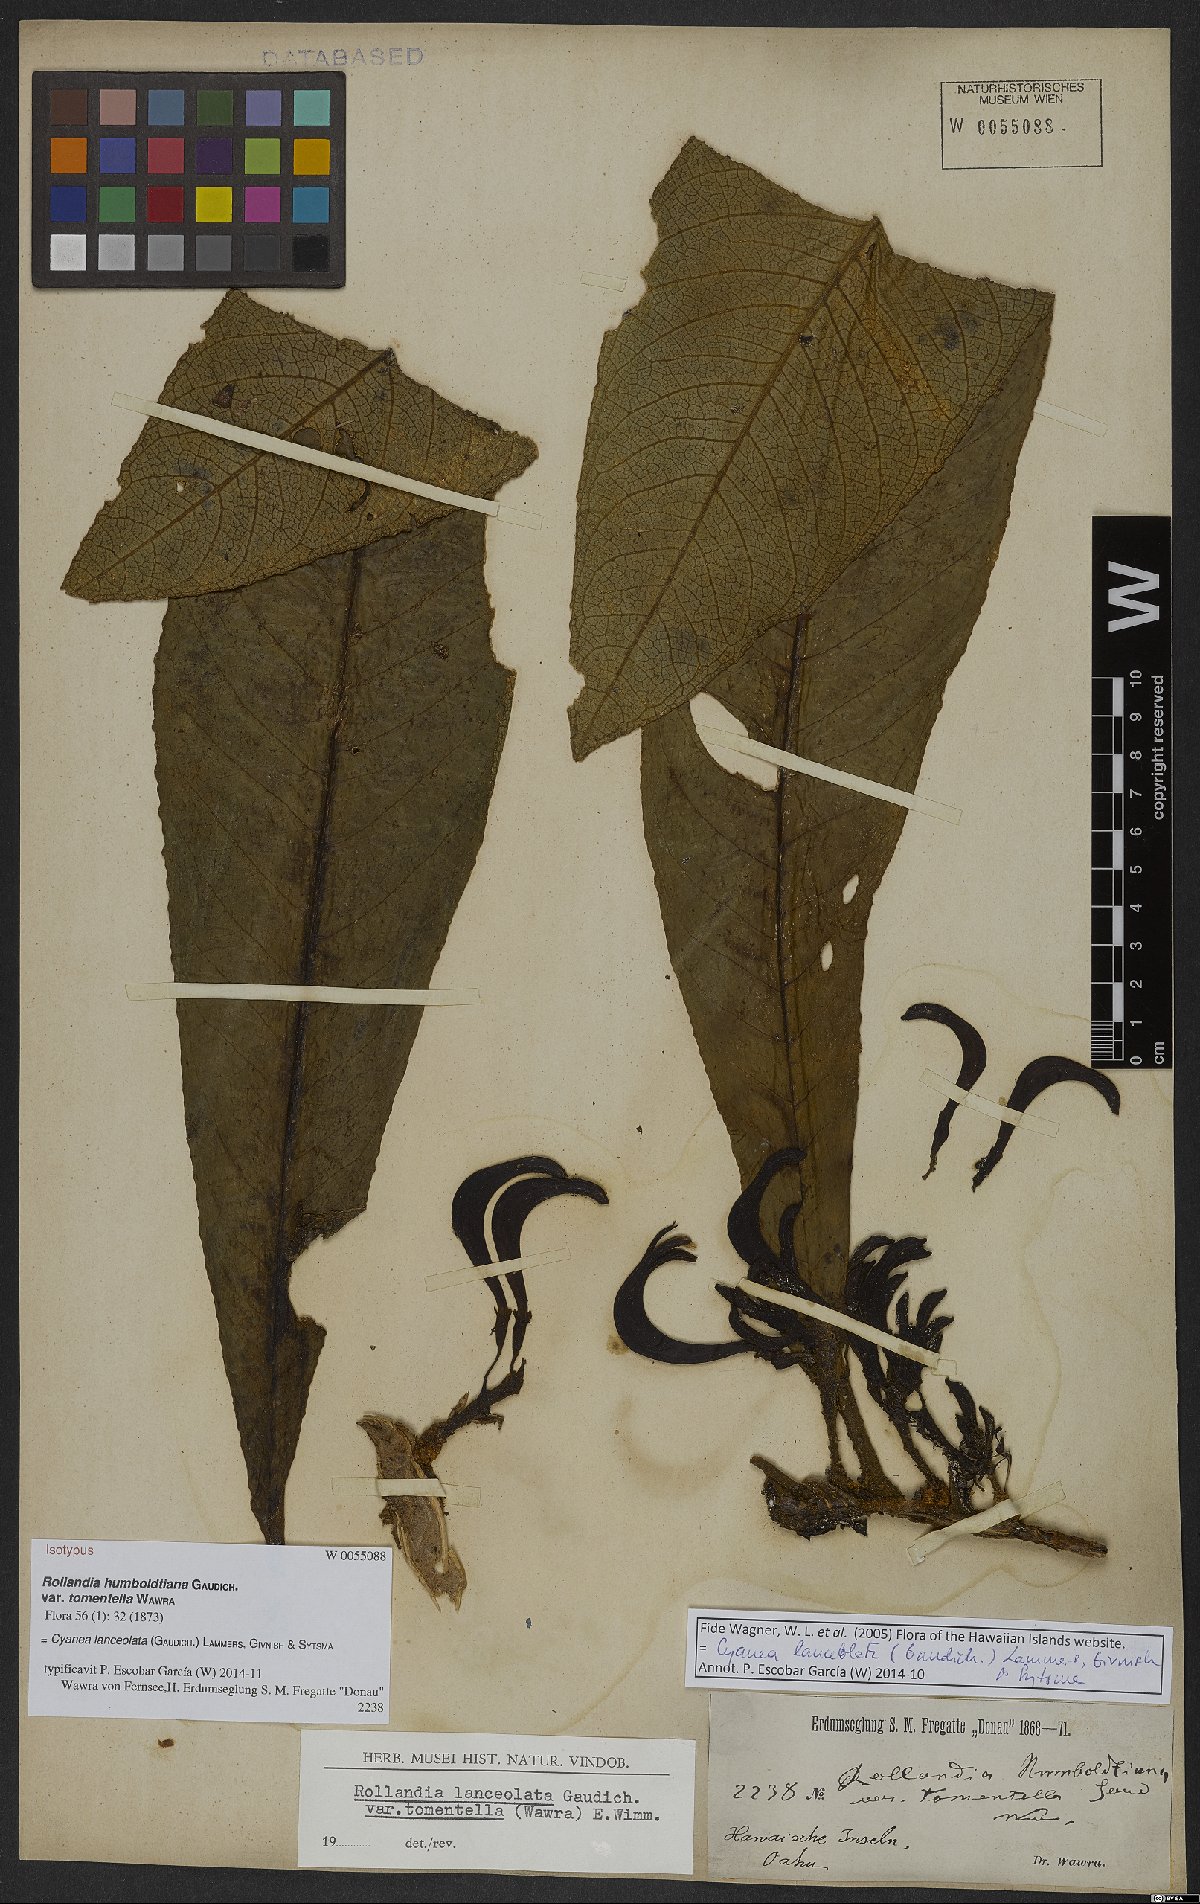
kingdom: Plantae
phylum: Tracheophyta
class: Magnoliopsida
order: Asterales
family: Campanulaceae
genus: Cyanea
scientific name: Cyanea lanceolata
